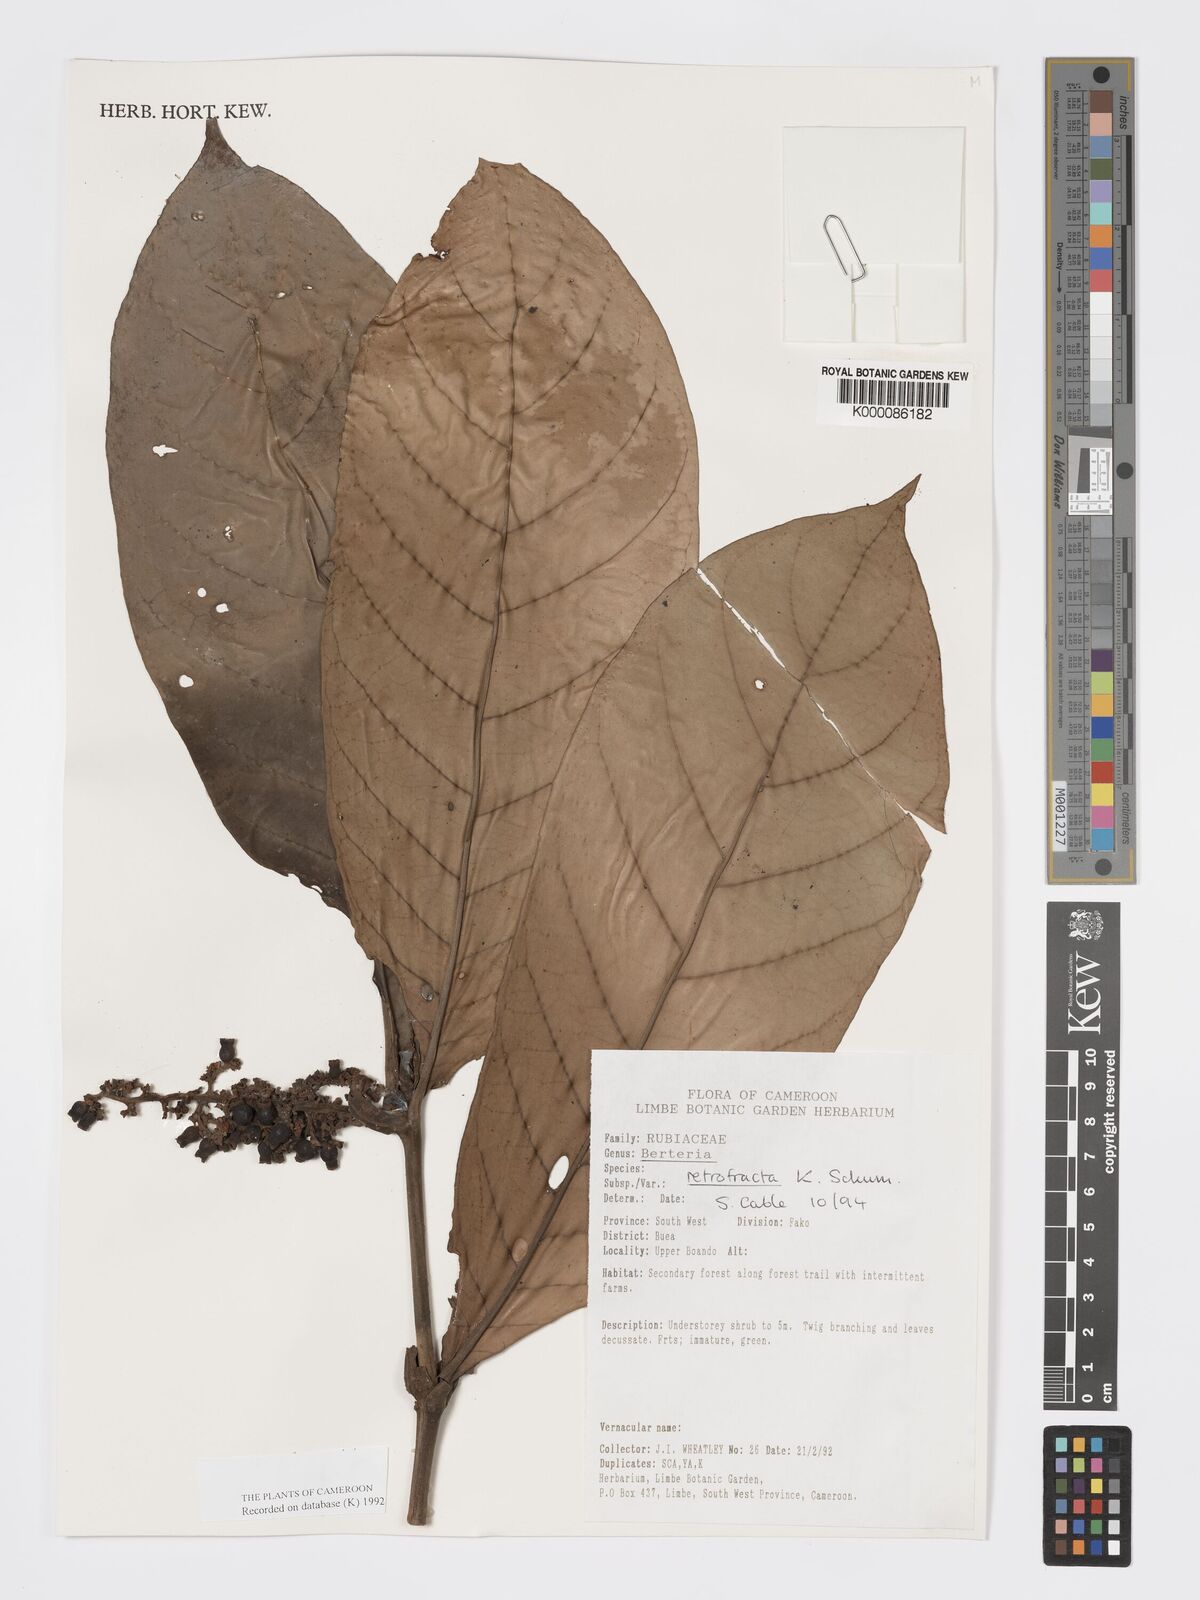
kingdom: Plantae
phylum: Tracheophyta
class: Magnoliopsida
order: Gentianales
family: Rubiaceae
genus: Bertiera
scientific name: Bertiera retrofracta
